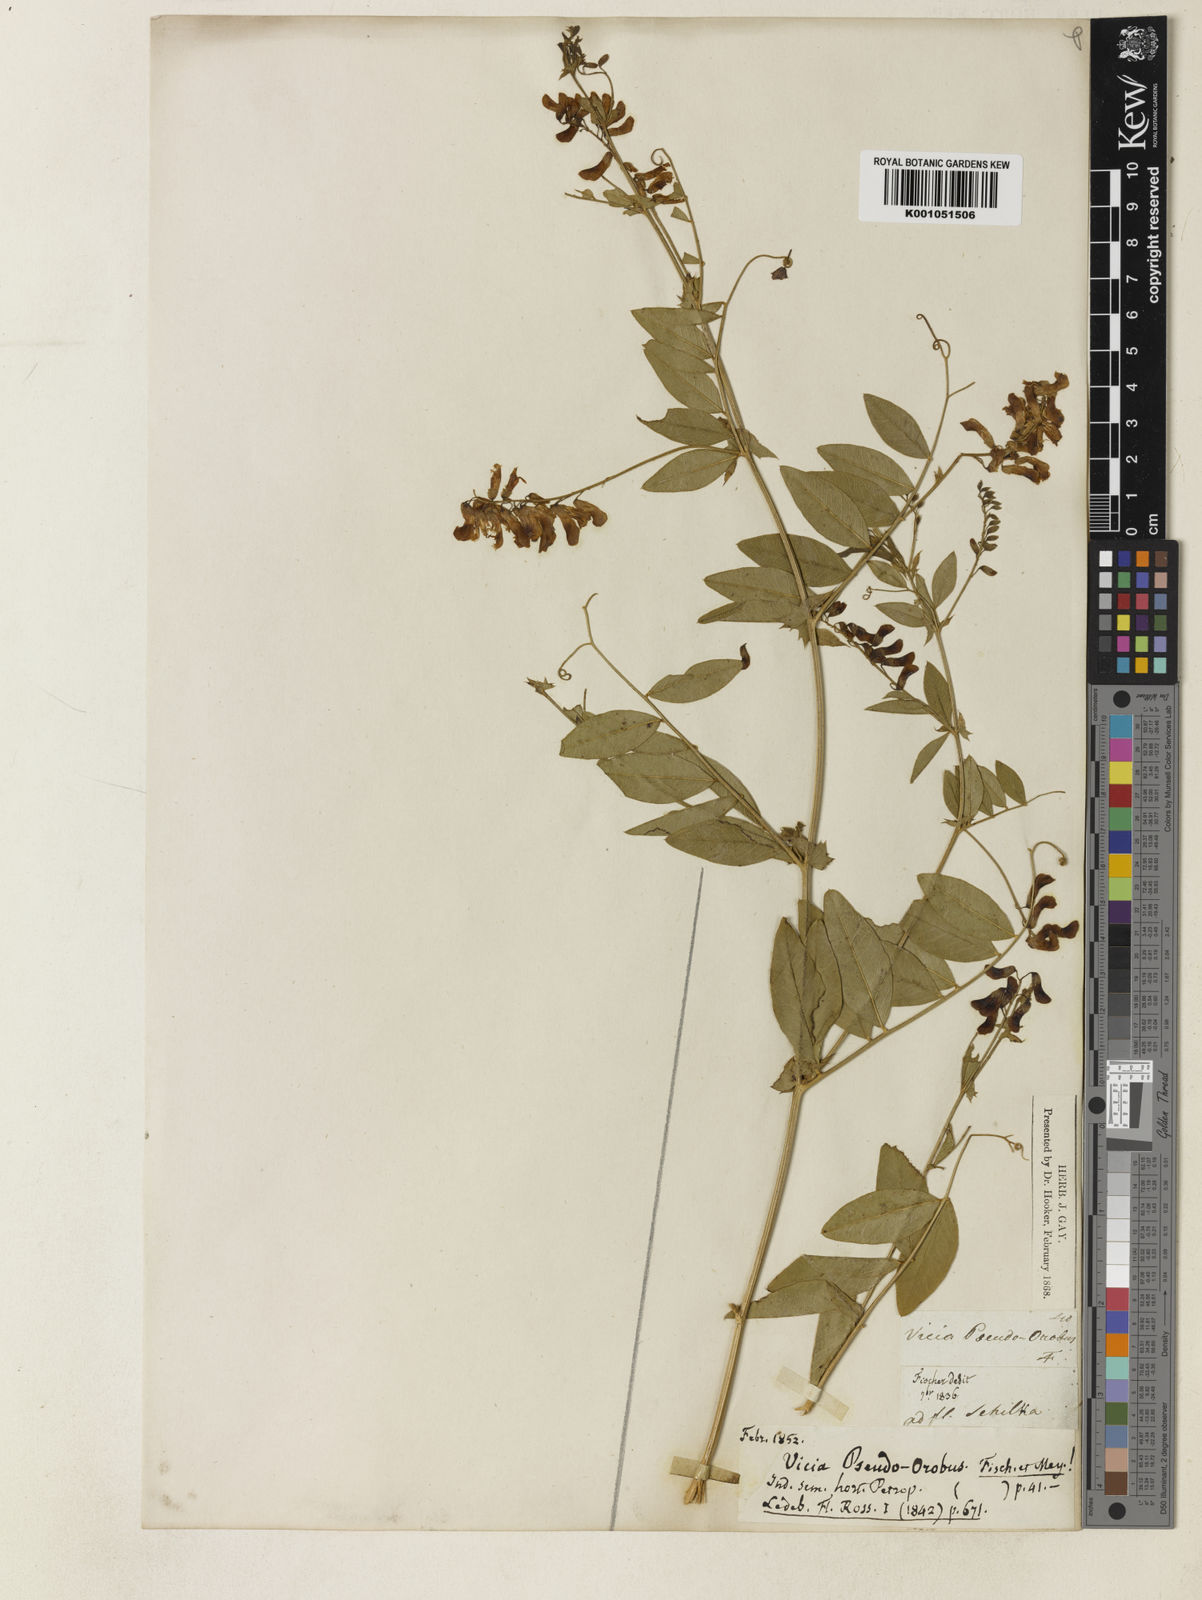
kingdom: Plantae
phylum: Tracheophyta
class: Magnoliopsida
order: Fabales
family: Fabaceae
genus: Vicia
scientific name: Vicia pseudo-orobus
